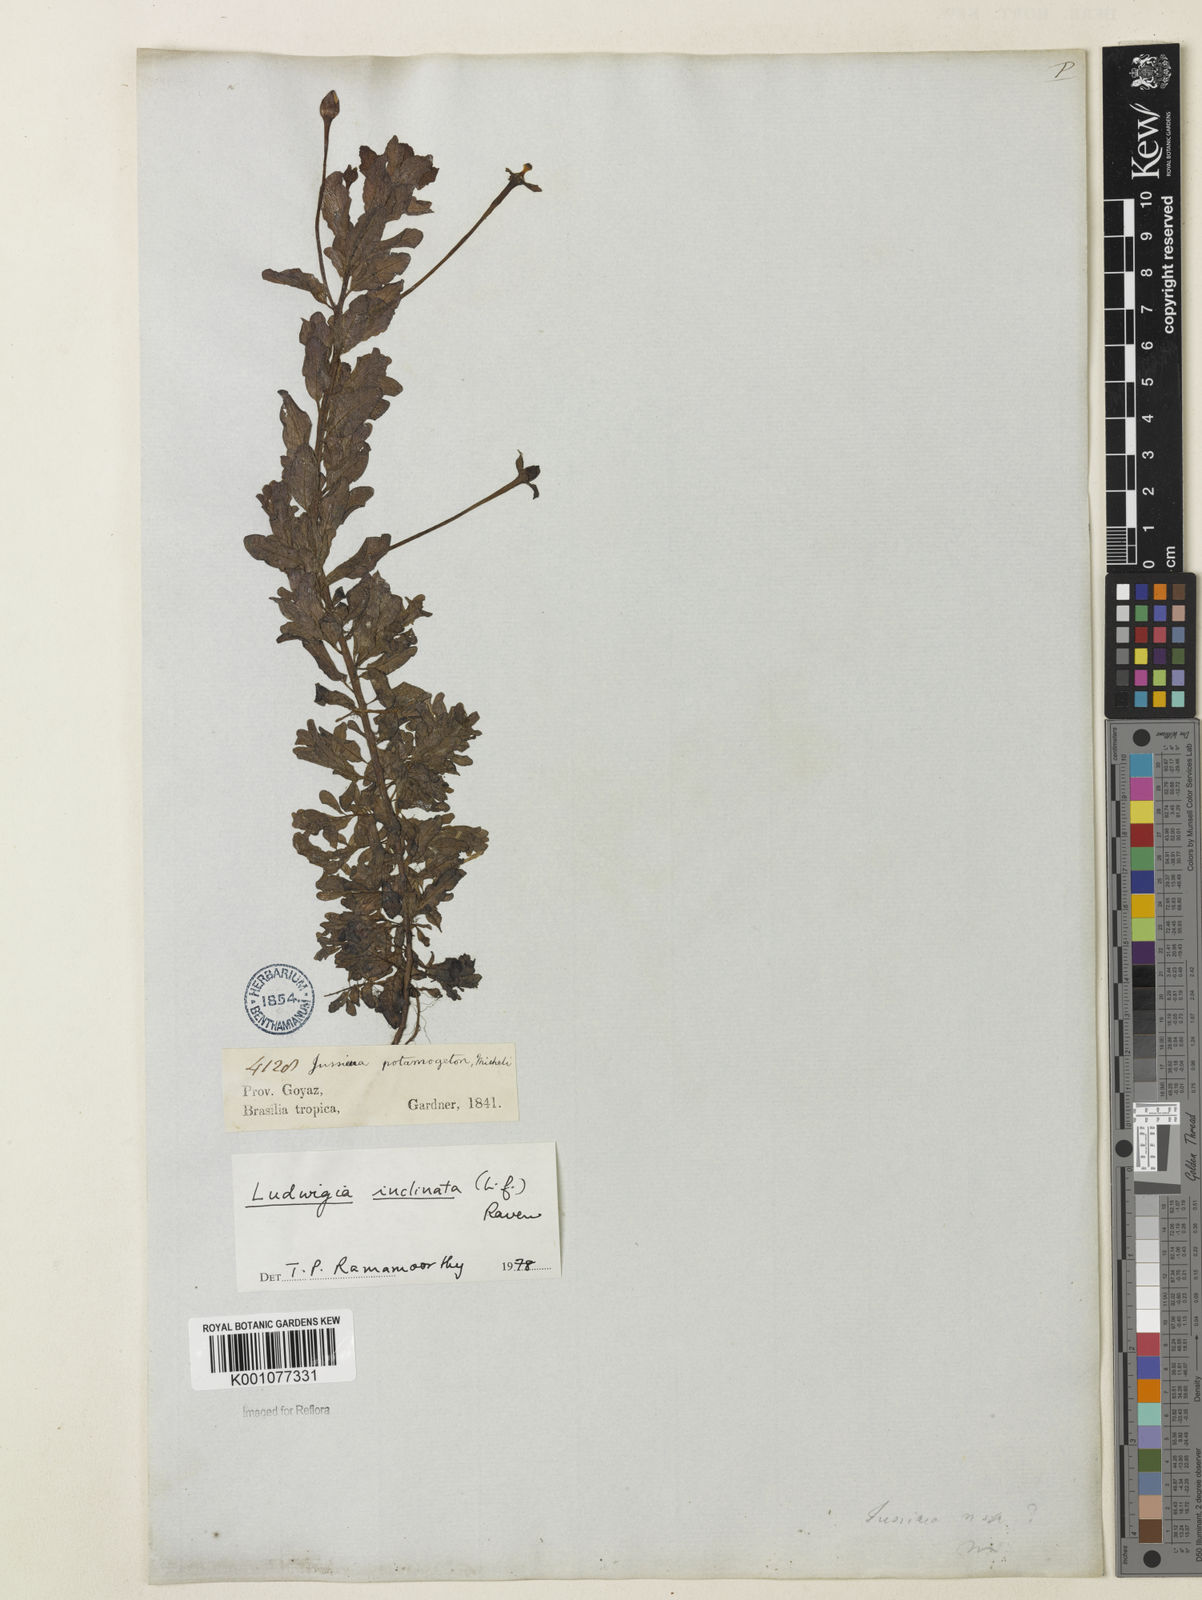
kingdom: Plantae
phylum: Tracheophyta
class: Magnoliopsida
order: Myrtales
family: Onagraceae
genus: Ludwigia
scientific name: Ludwigia potamogeton
